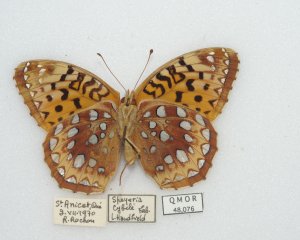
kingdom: Animalia
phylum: Arthropoda
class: Insecta
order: Lepidoptera
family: Nymphalidae
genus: Speyeria
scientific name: Speyeria cybele
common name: Great Spangled Fritillary
